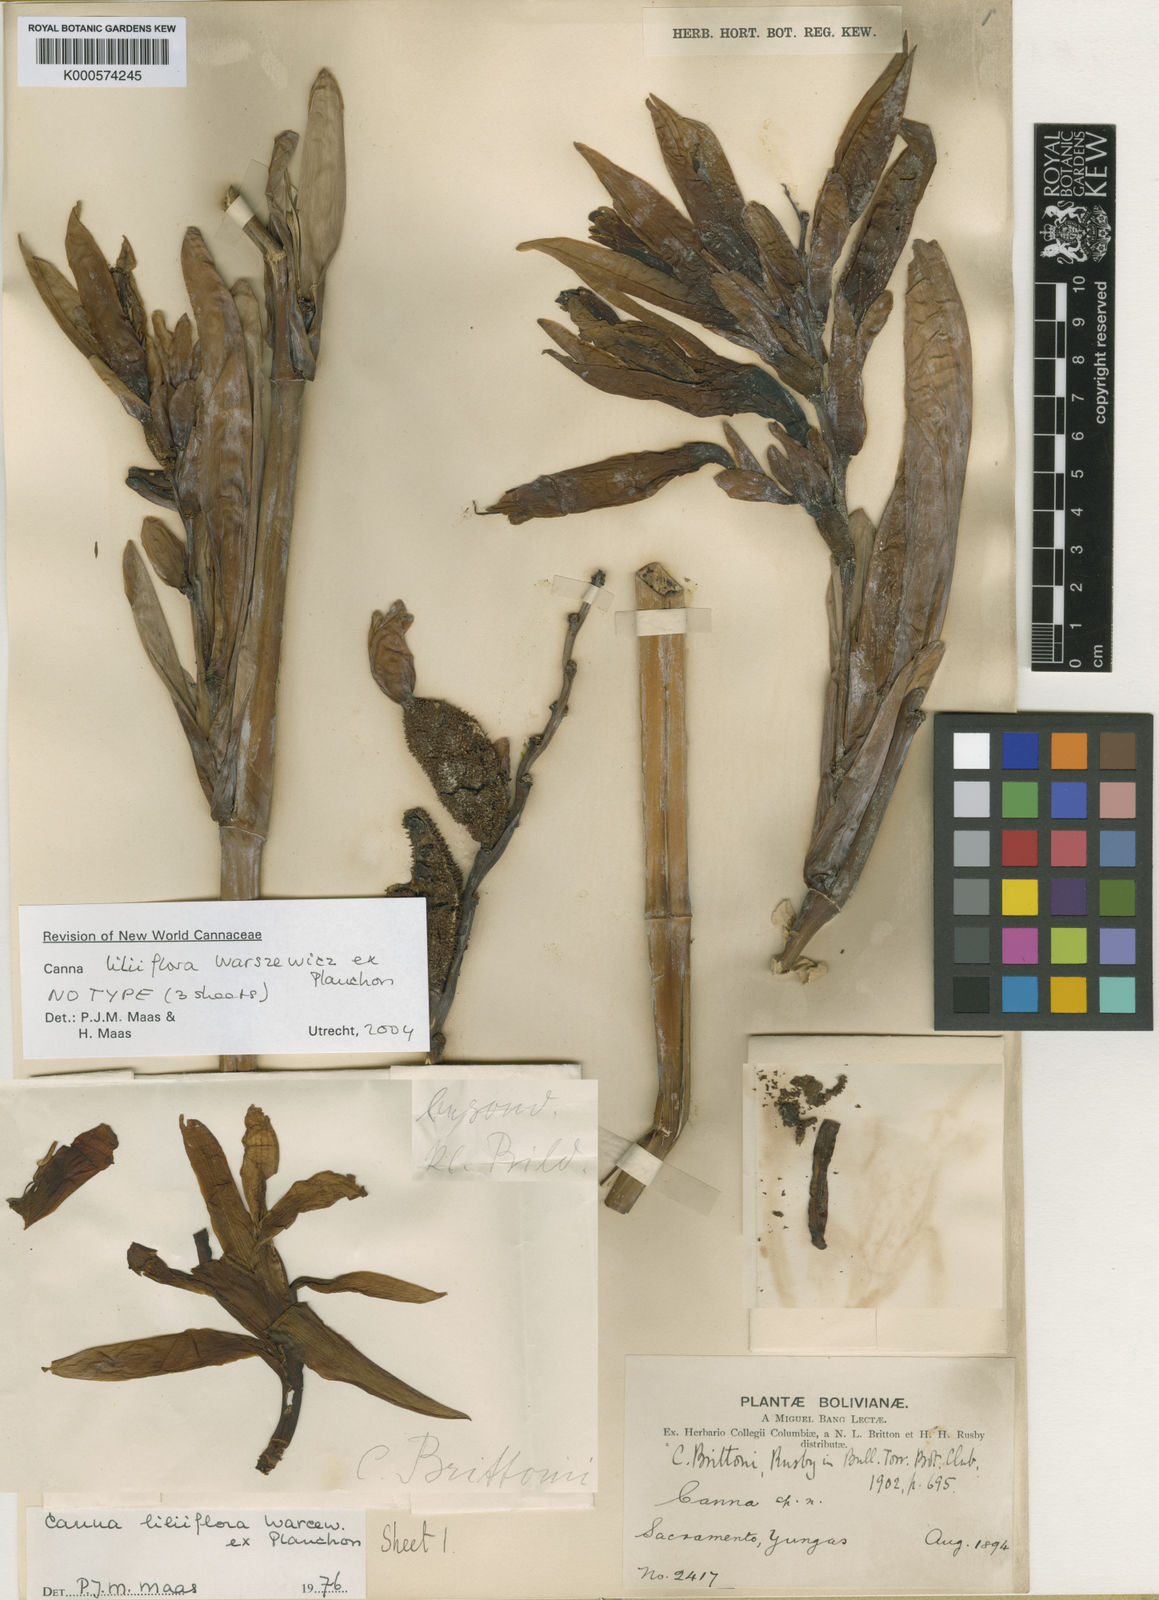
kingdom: Plantae
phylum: Tracheophyta
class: Liliopsida
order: Zingiberales
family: Cannaceae
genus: Canna
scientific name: Canna liliiflora
